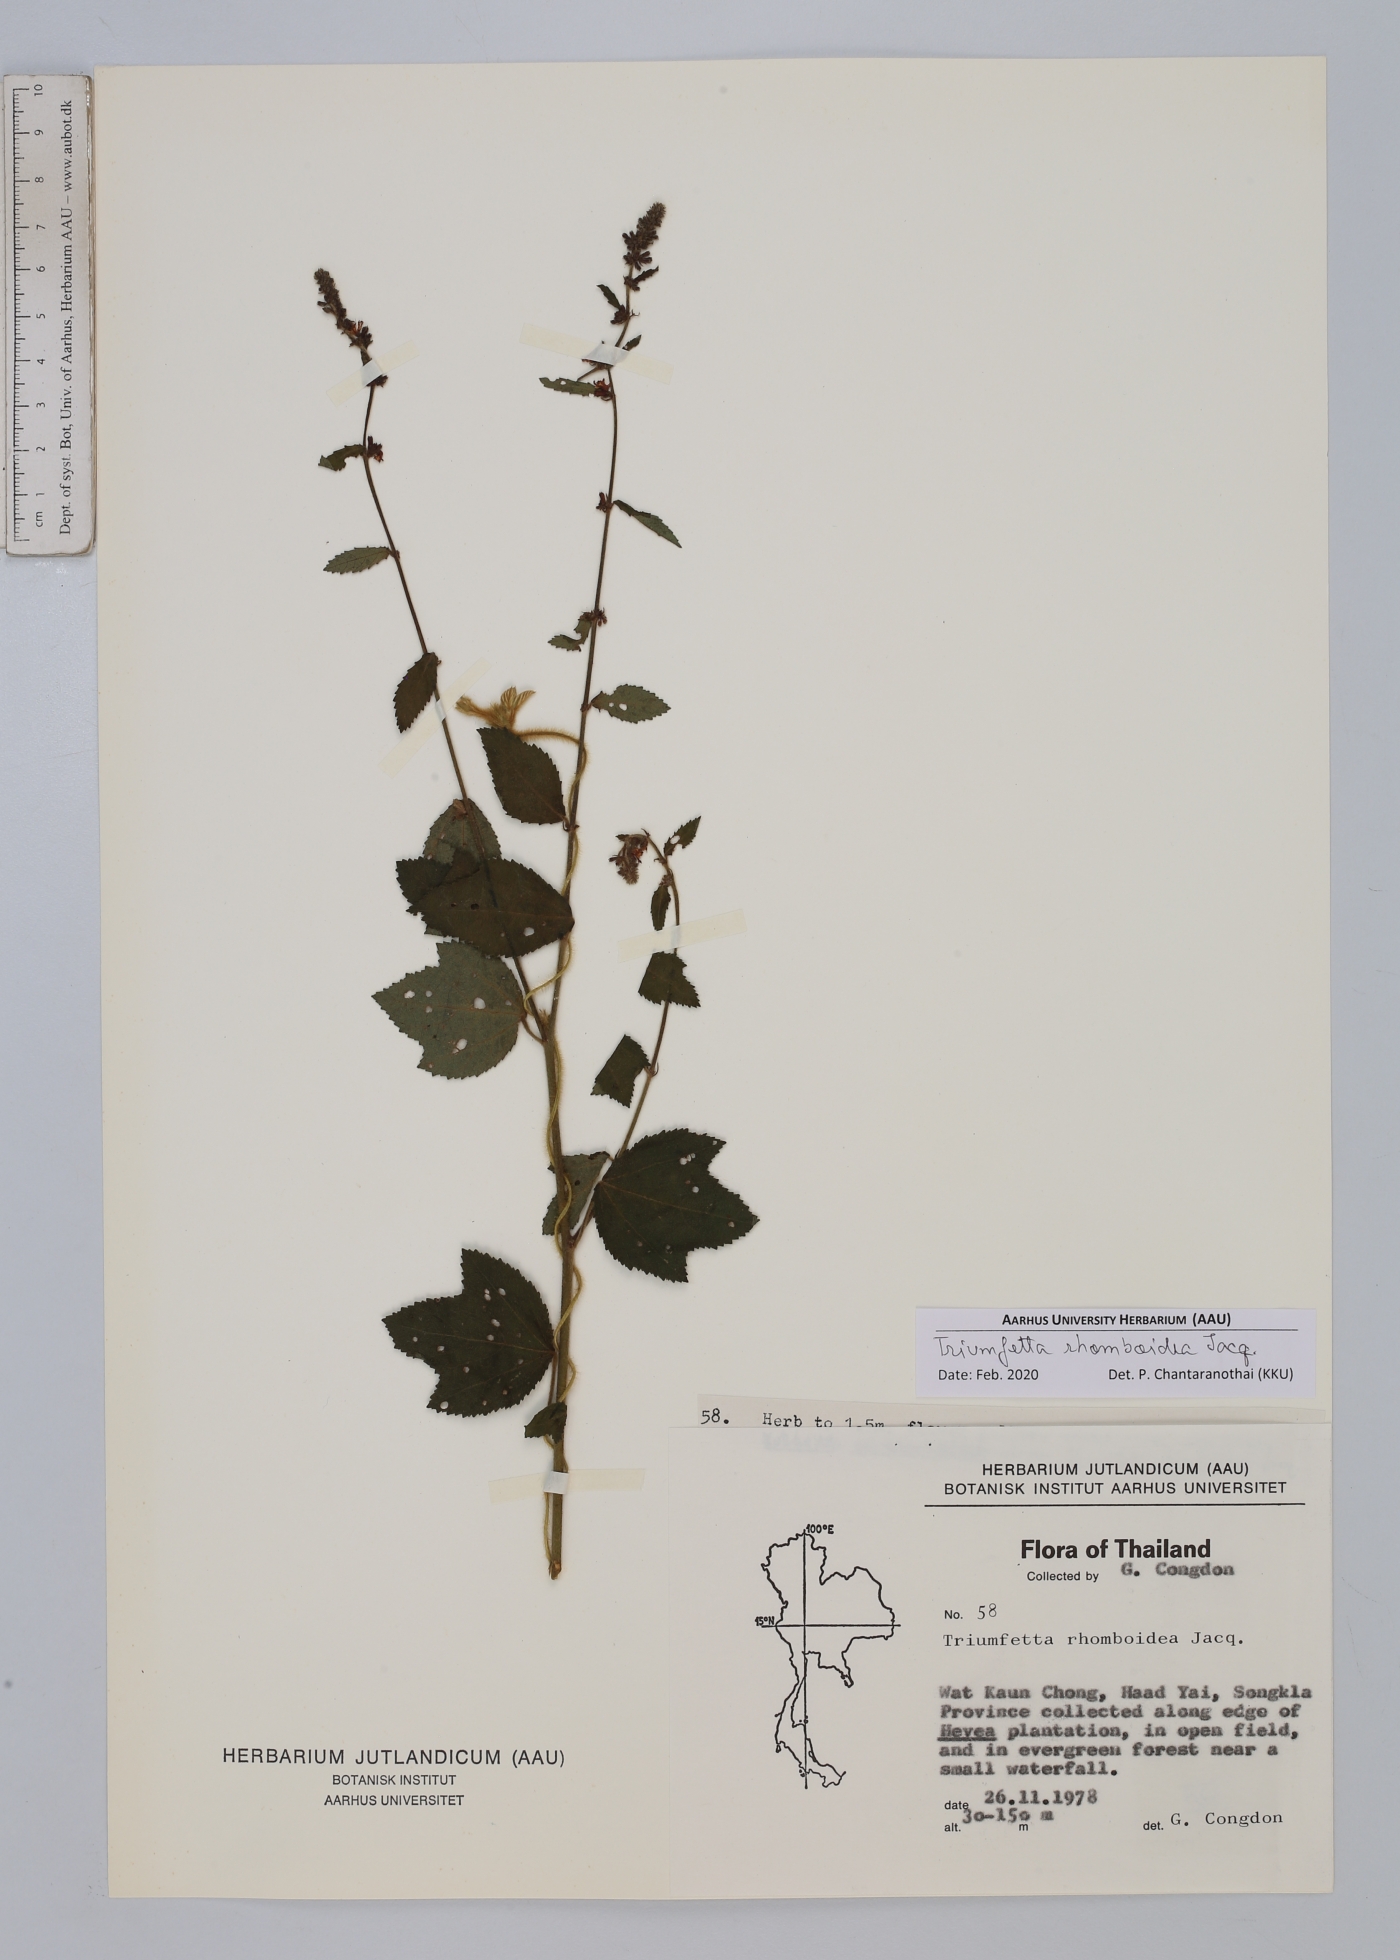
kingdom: Plantae
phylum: Tracheophyta
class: Magnoliopsida
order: Malvales
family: Malvaceae
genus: Triumfetta
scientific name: Triumfetta rhomboidea
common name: Diamond burbark
